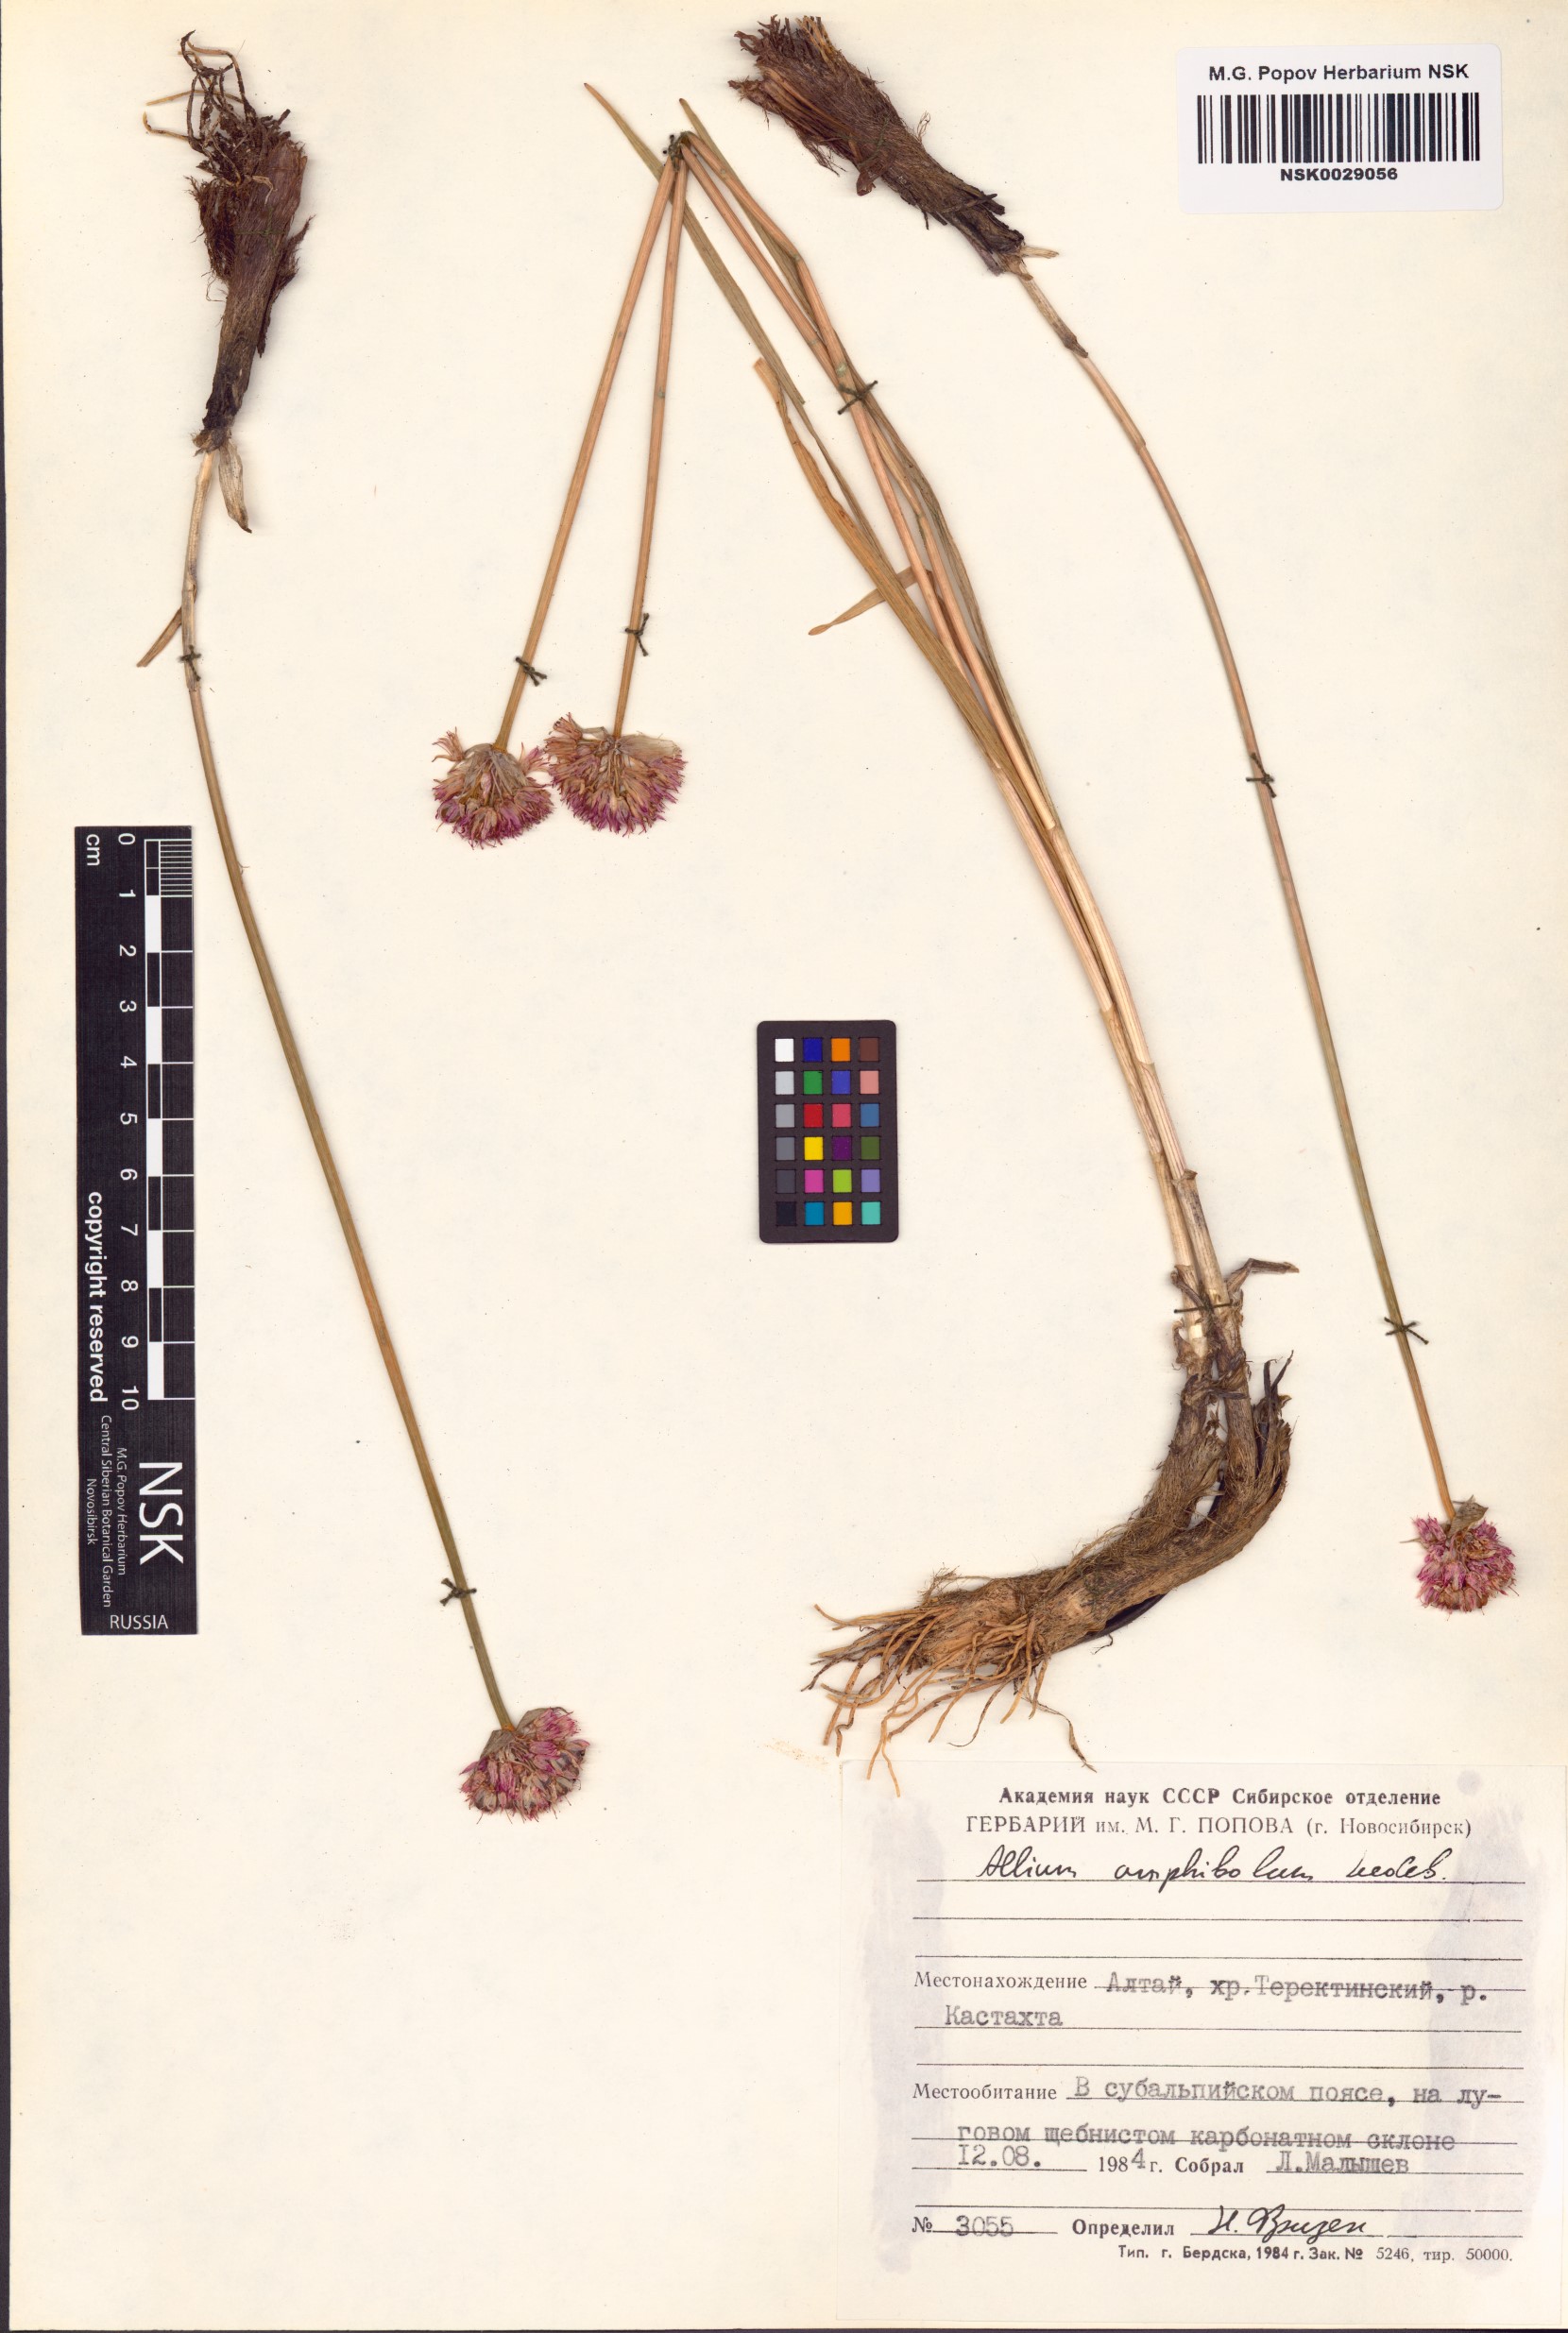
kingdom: Plantae
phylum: Tracheophyta
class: Liliopsida
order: Asparagales
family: Amaryllidaceae
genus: Allium
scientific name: Allium amphibolum
